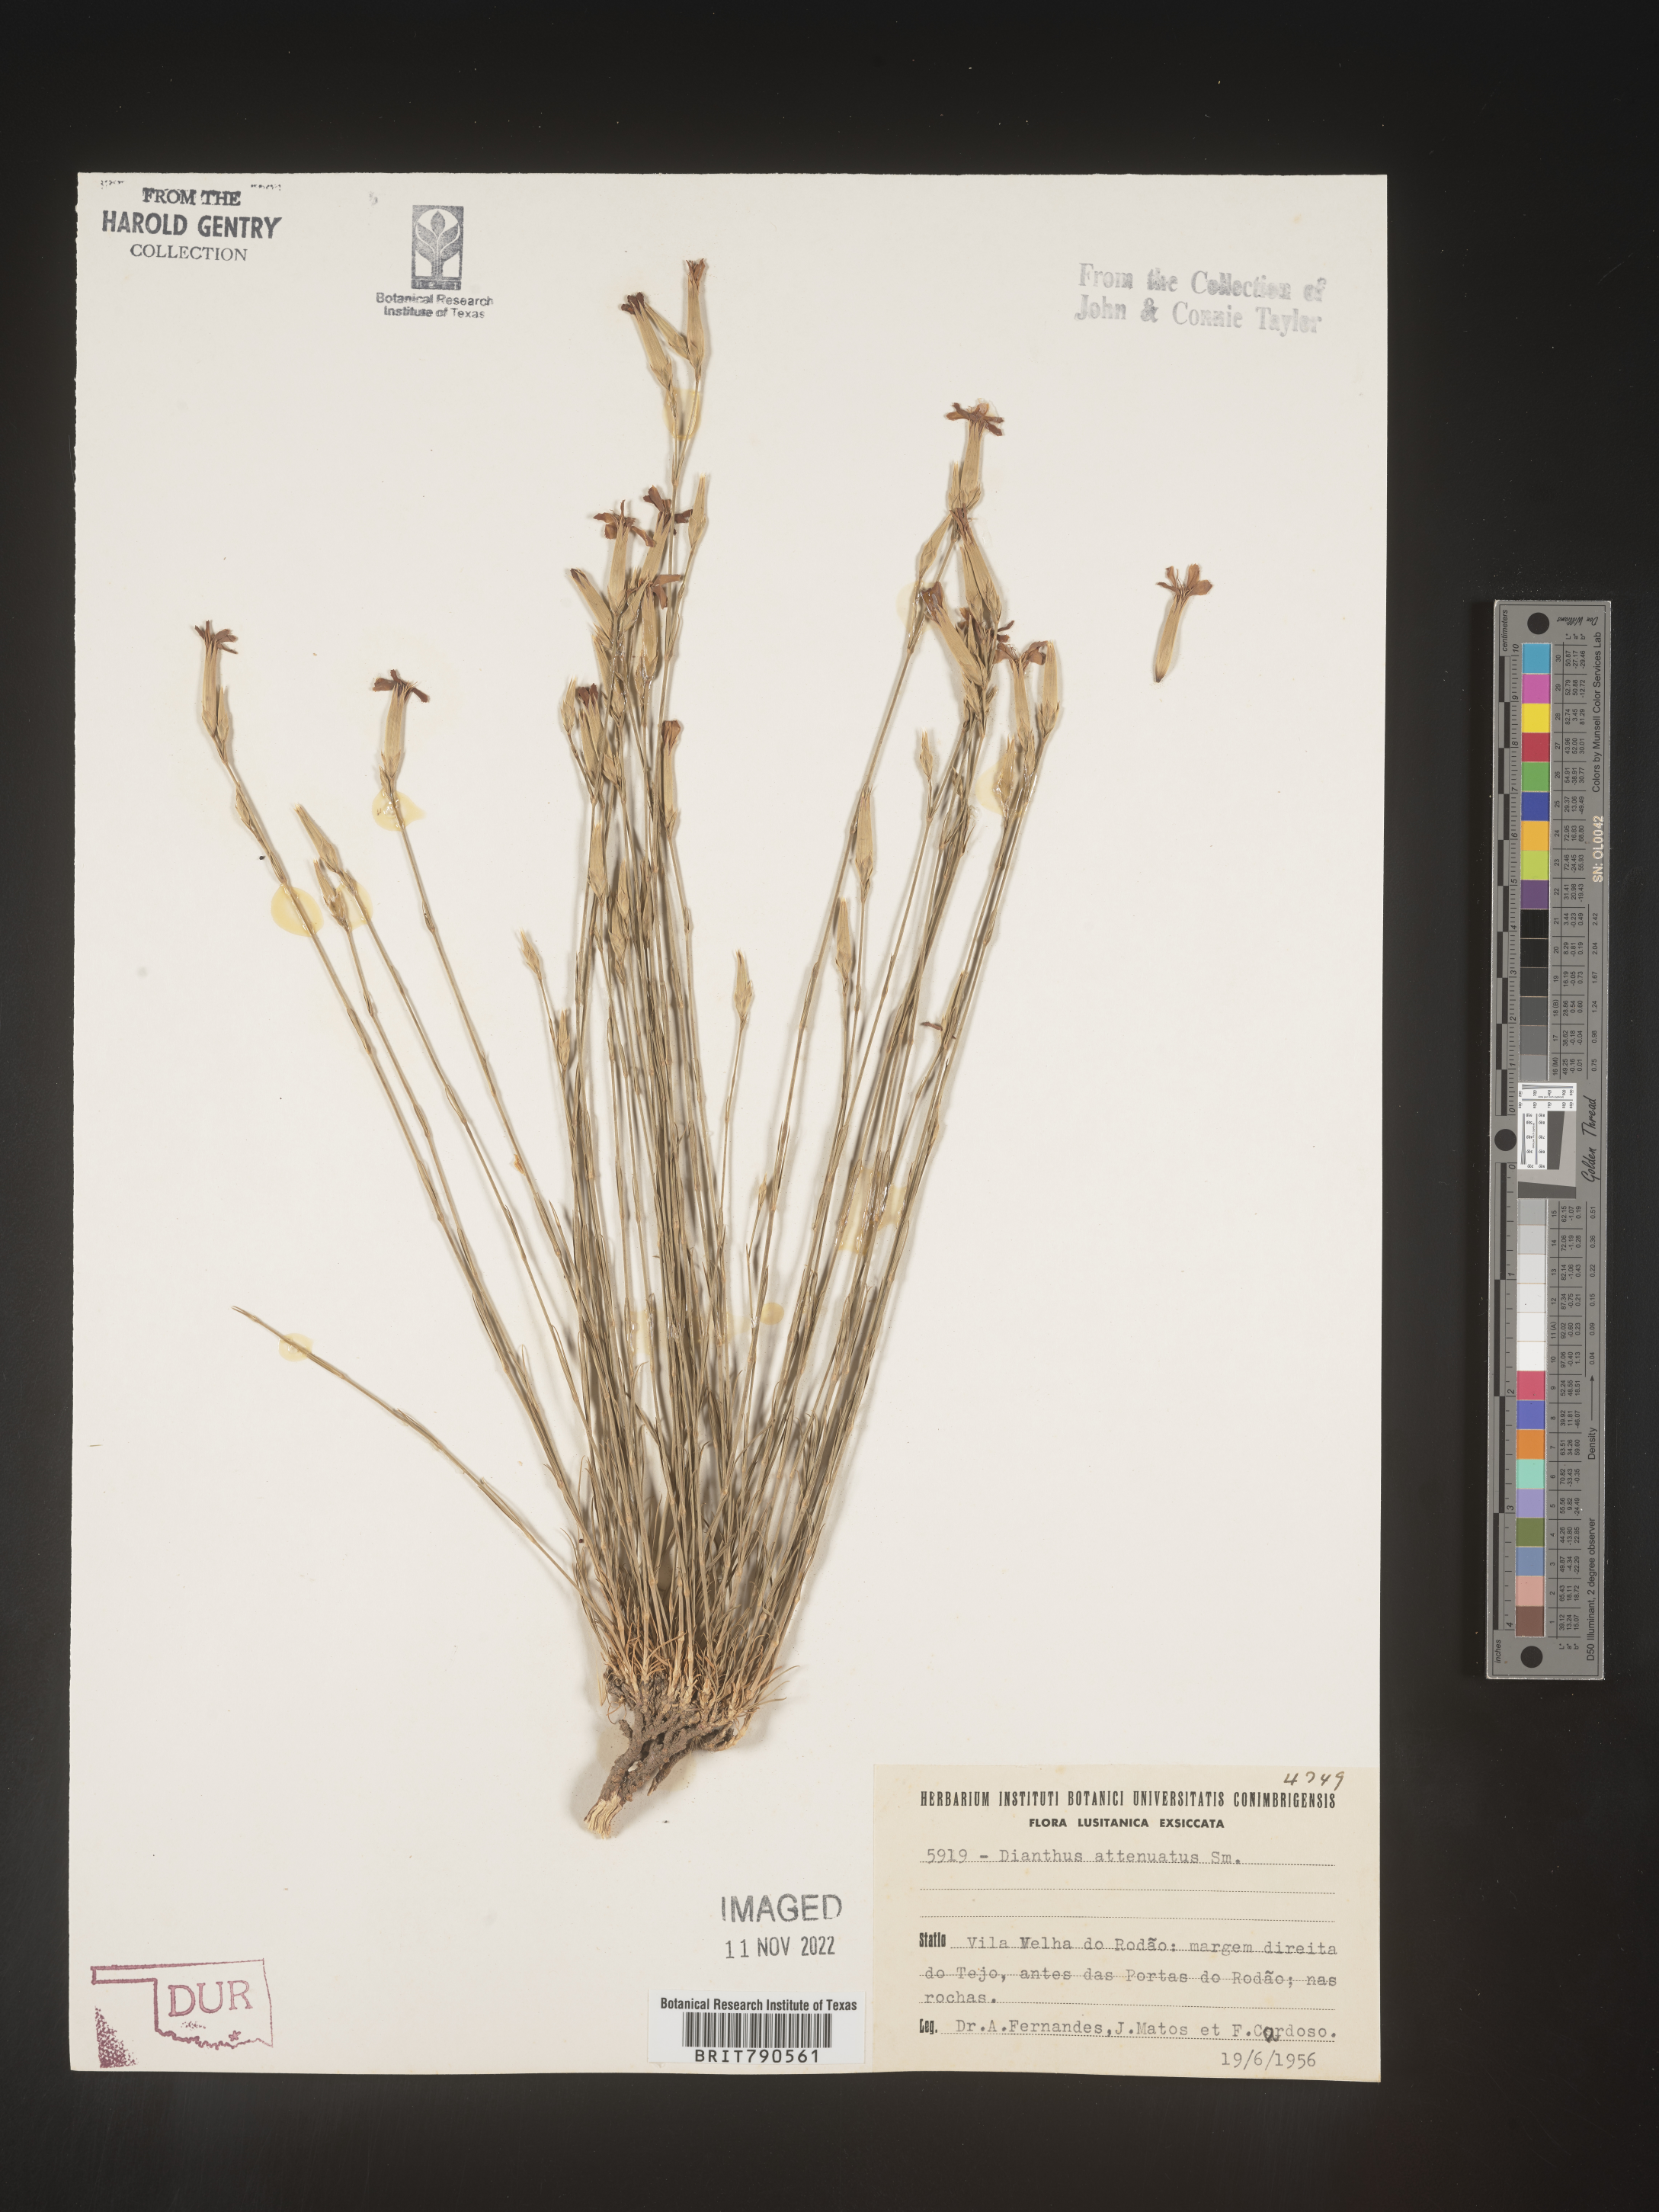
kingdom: Plantae
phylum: Tracheophyta
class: Magnoliopsida
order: Caryophyllales
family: Caryophyllaceae
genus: Dianthus
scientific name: Dianthus
